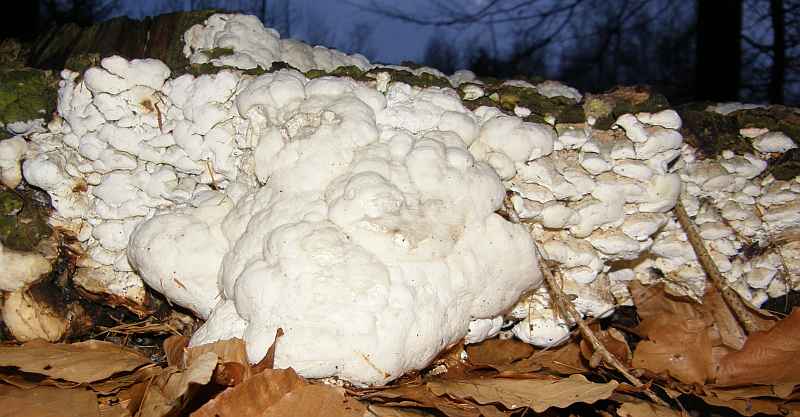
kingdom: Fungi
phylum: Basidiomycota
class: Agaricomycetes
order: Polyporales
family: Fomitopsidaceae
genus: Daedalea
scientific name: Daedalea xantha
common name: gul sejporesvamp
